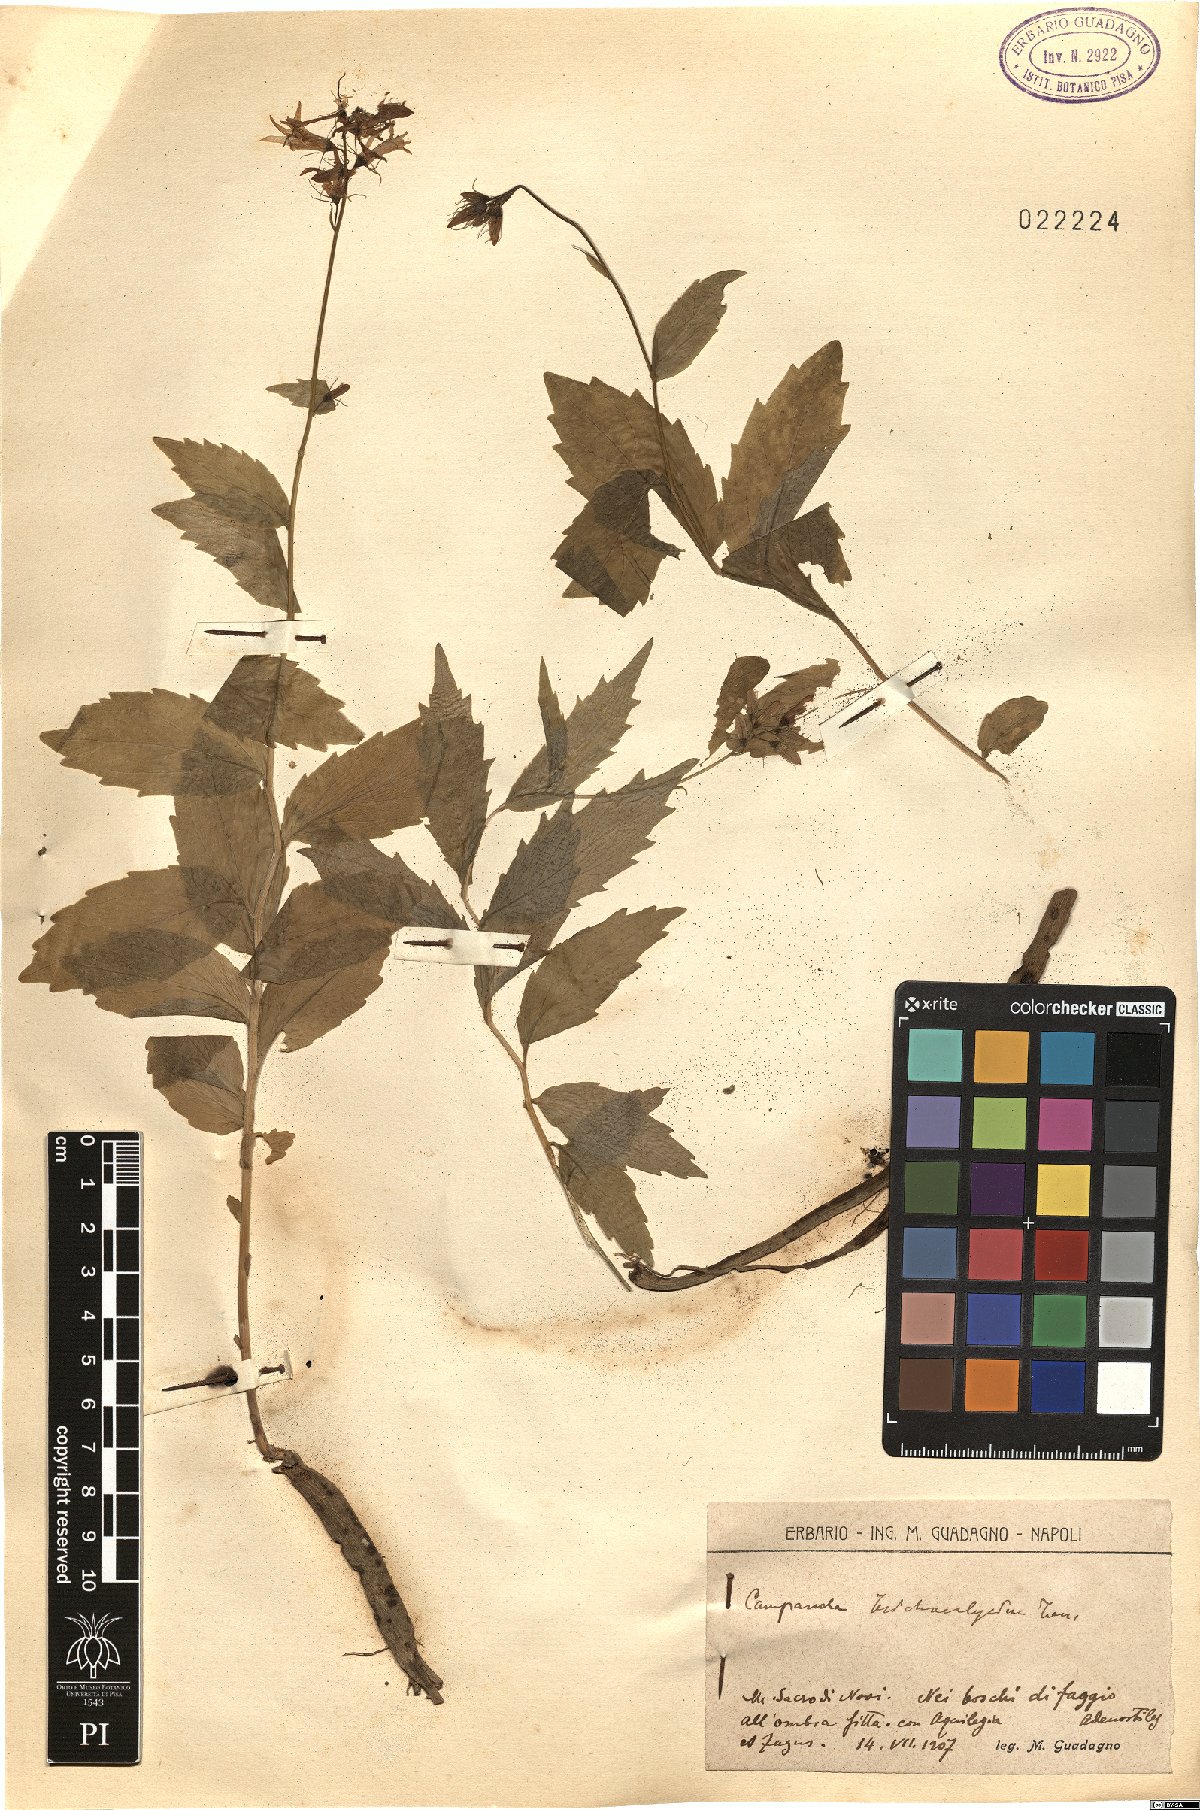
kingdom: Plantae
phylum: Tracheophyta
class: Magnoliopsida
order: Asterales
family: Campanulaceae
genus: Campanula
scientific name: Campanula trichocalycina
